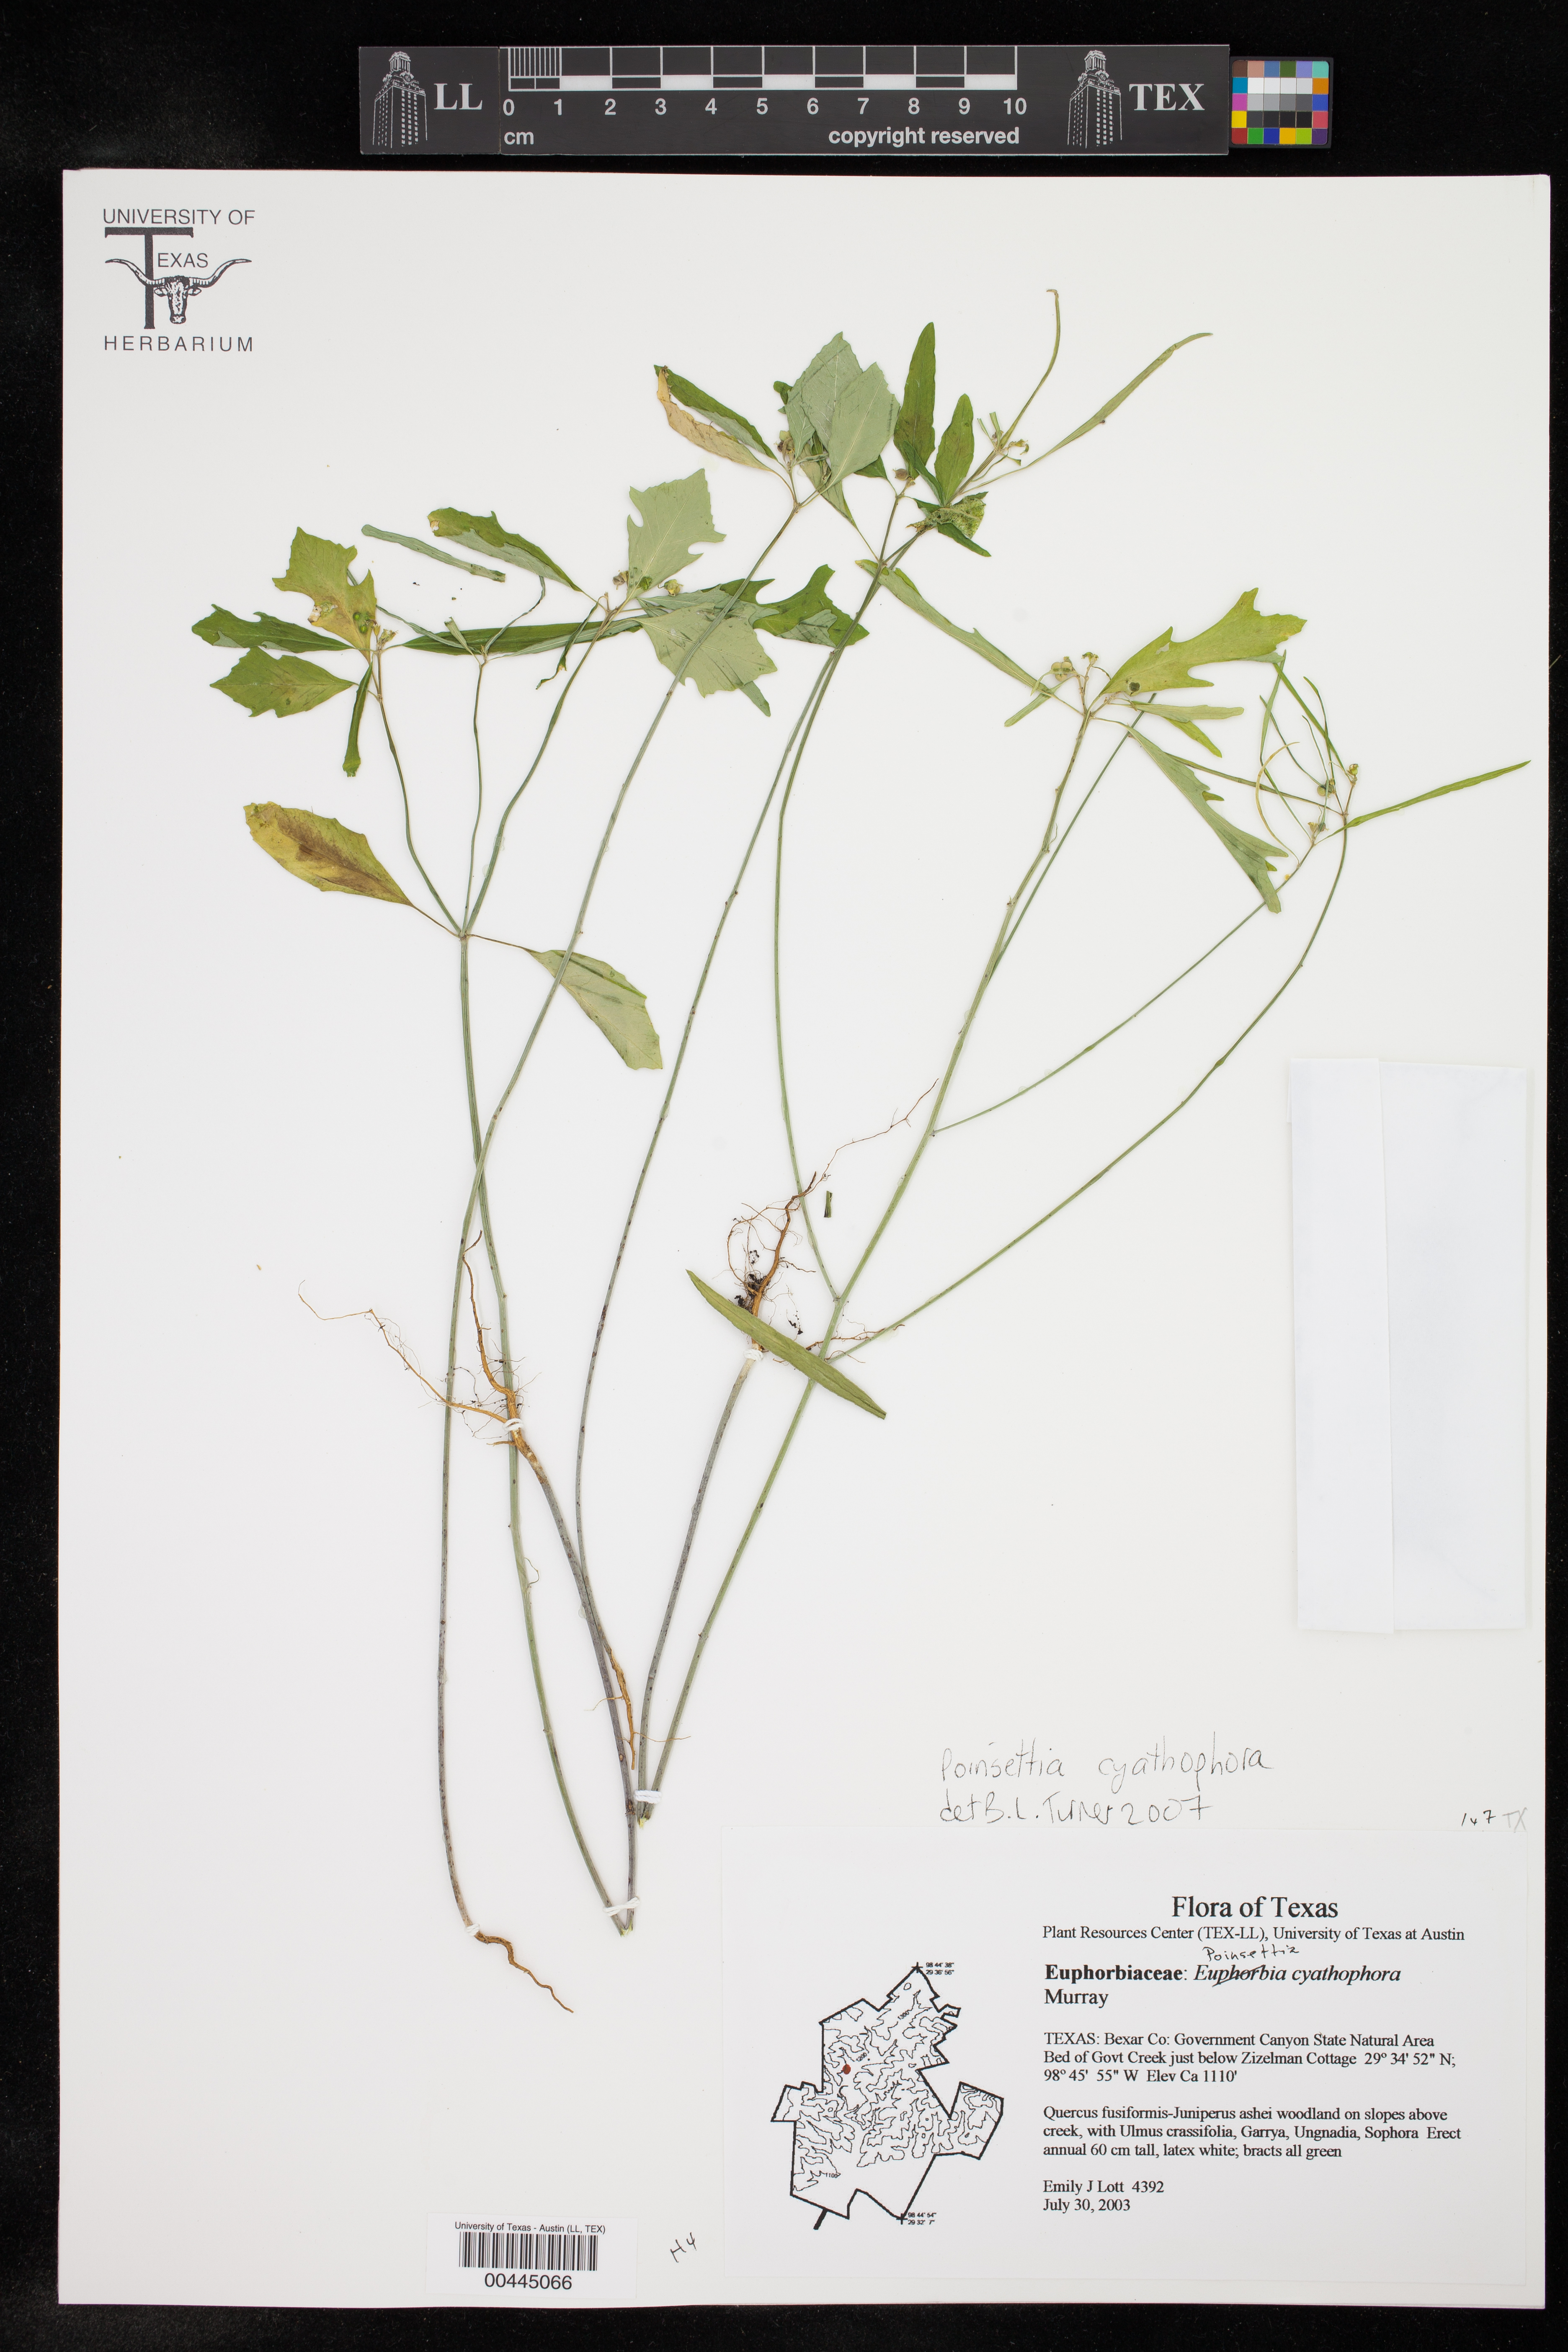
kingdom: Plantae
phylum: Tracheophyta
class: Magnoliopsida
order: Malpighiales
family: Euphorbiaceae
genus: Euphorbia
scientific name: Euphorbia heterophylla
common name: Mexican fireplant
